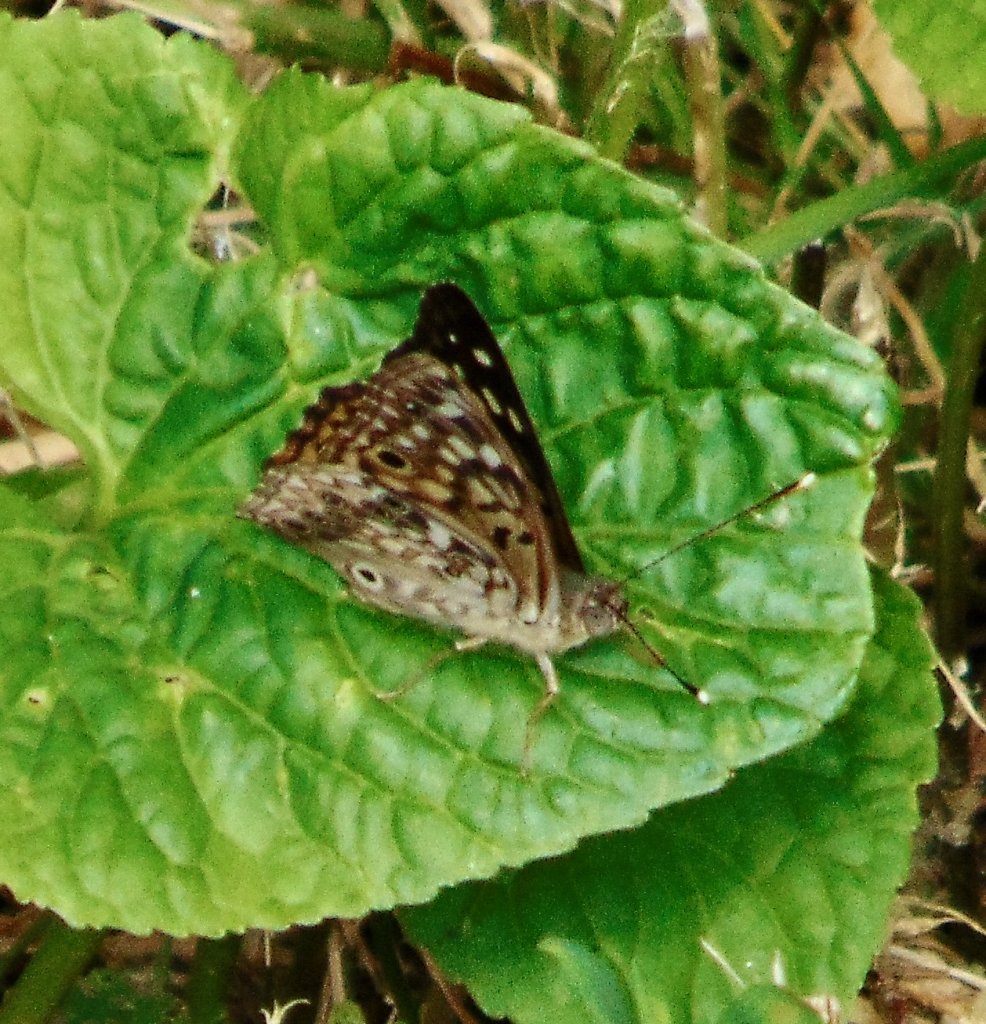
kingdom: Animalia
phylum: Arthropoda
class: Insecta
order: Lepidoptera
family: Nymphalidae
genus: Asterocampa
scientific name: Asterocampa celtis
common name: Hackberry Emperor
